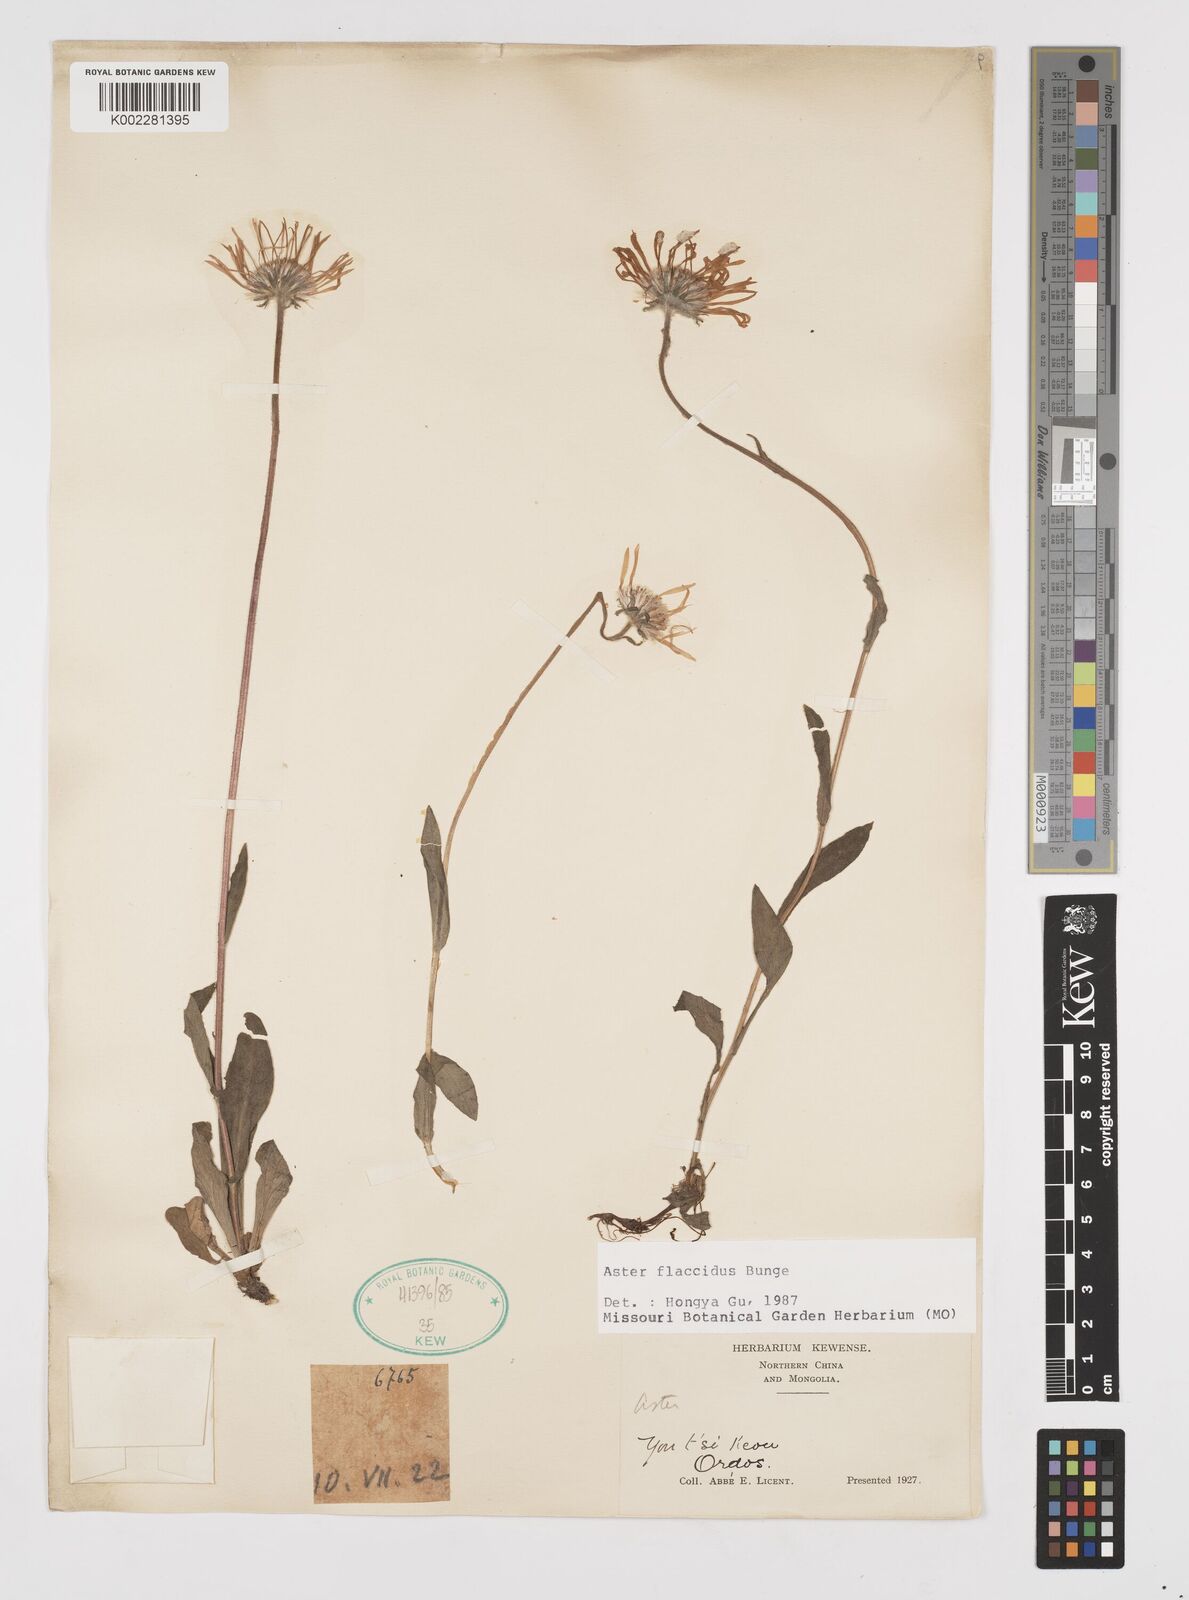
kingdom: Plantae
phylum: Tracheophyta
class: Magnoliopsida
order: Asterales
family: Asteraceae
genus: Tibetiodes
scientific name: Tibetiodes flaccida
